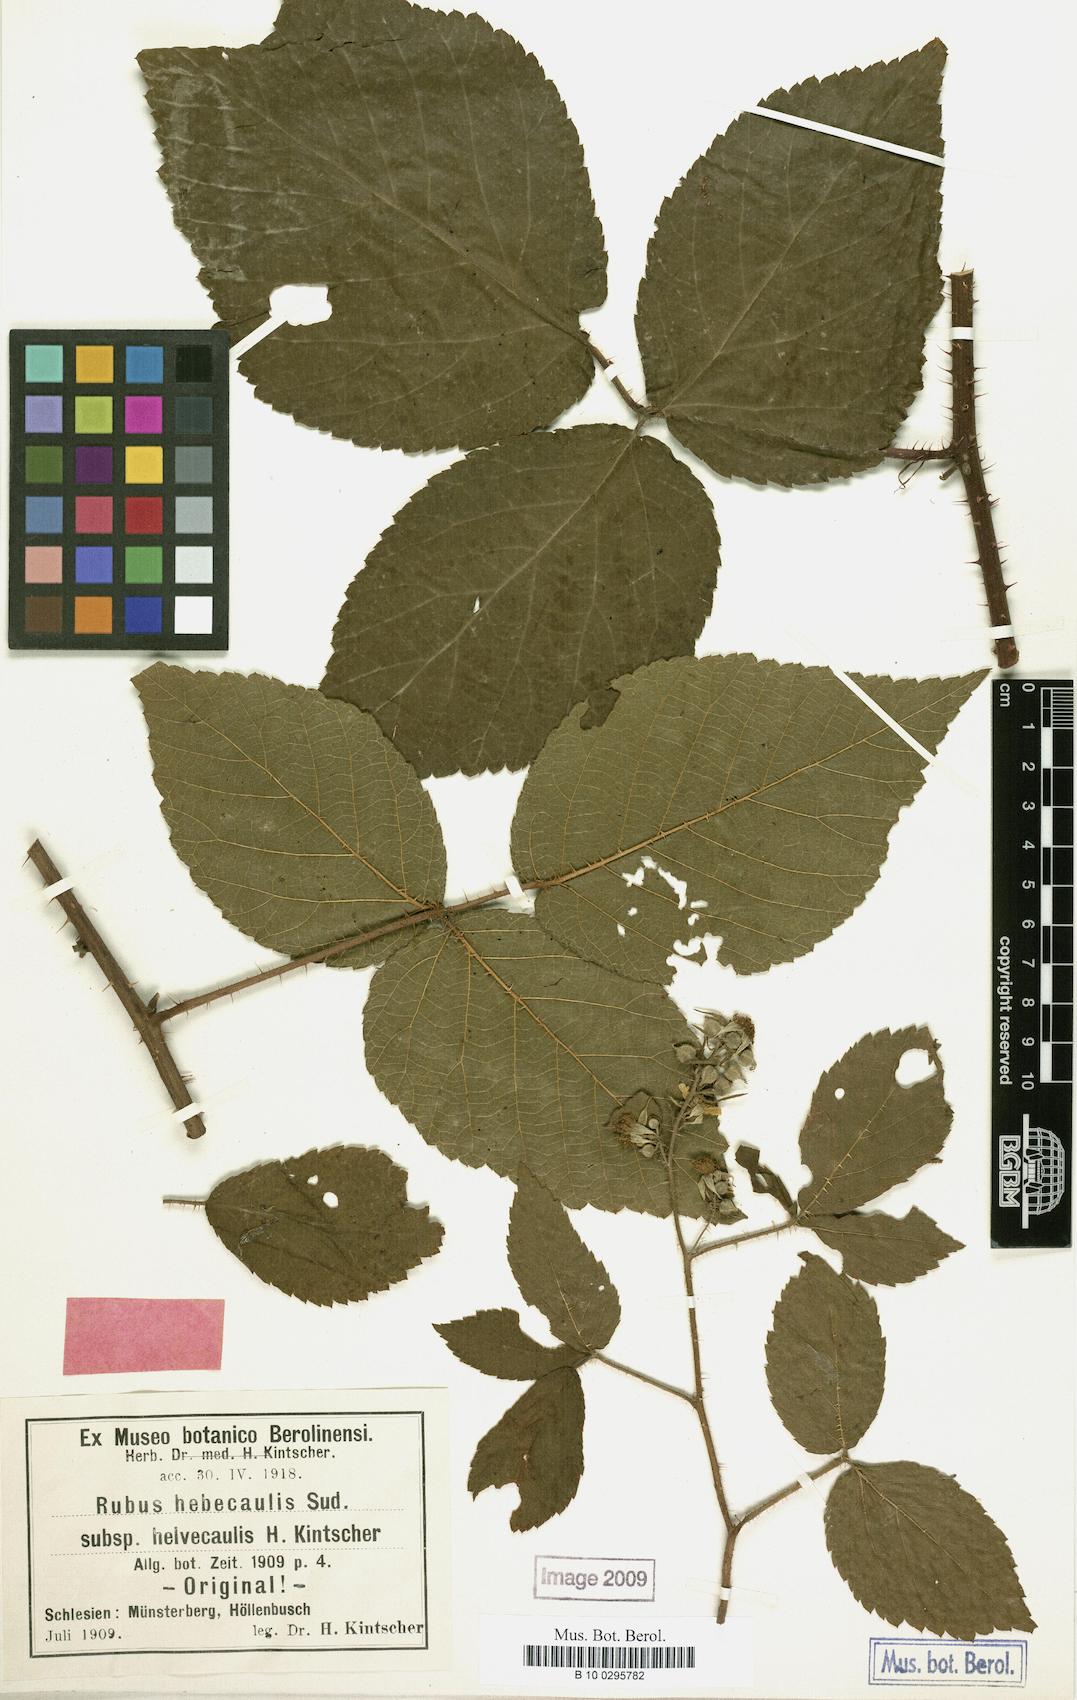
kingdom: Plantae
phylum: Tracheophyta
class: Magnoliopsida
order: Rosales
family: Rosaceae
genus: Rubus
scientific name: Rubus hebecaulis
